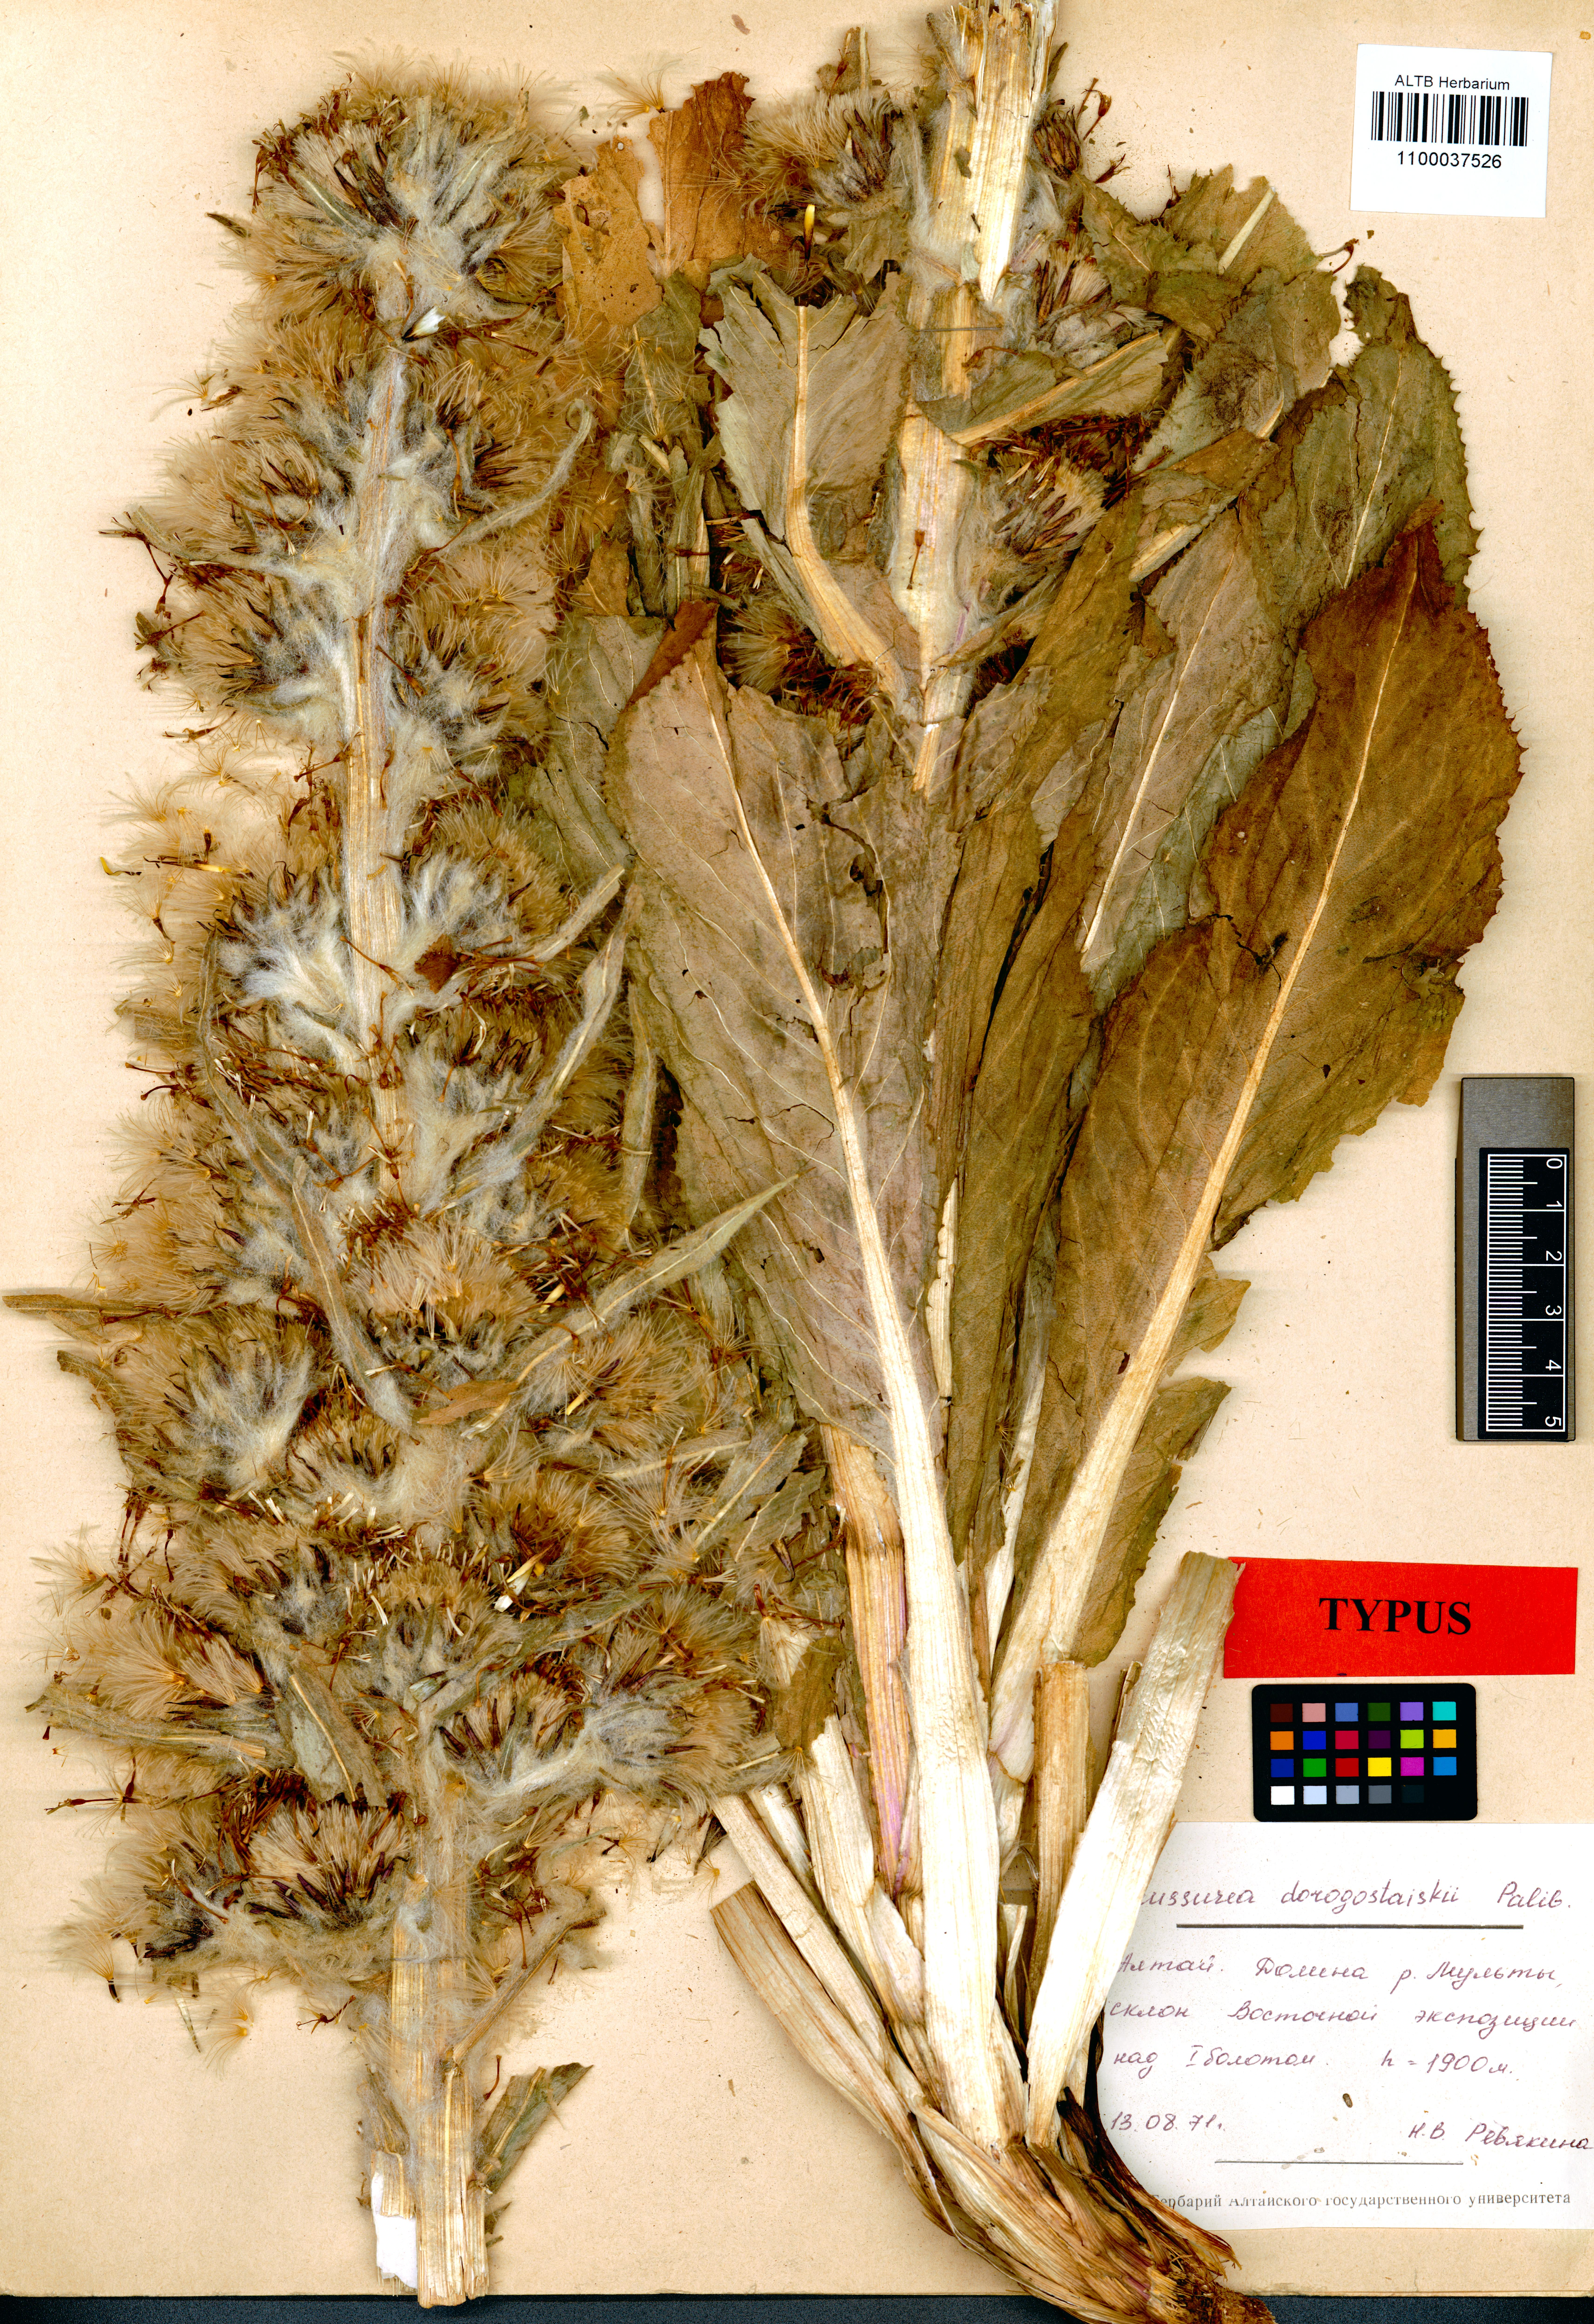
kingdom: Plantae
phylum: Tracheophyta
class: Magnoliopsida
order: Asterales
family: Asteraceae
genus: Saussurea
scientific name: Saussurea involucrata
